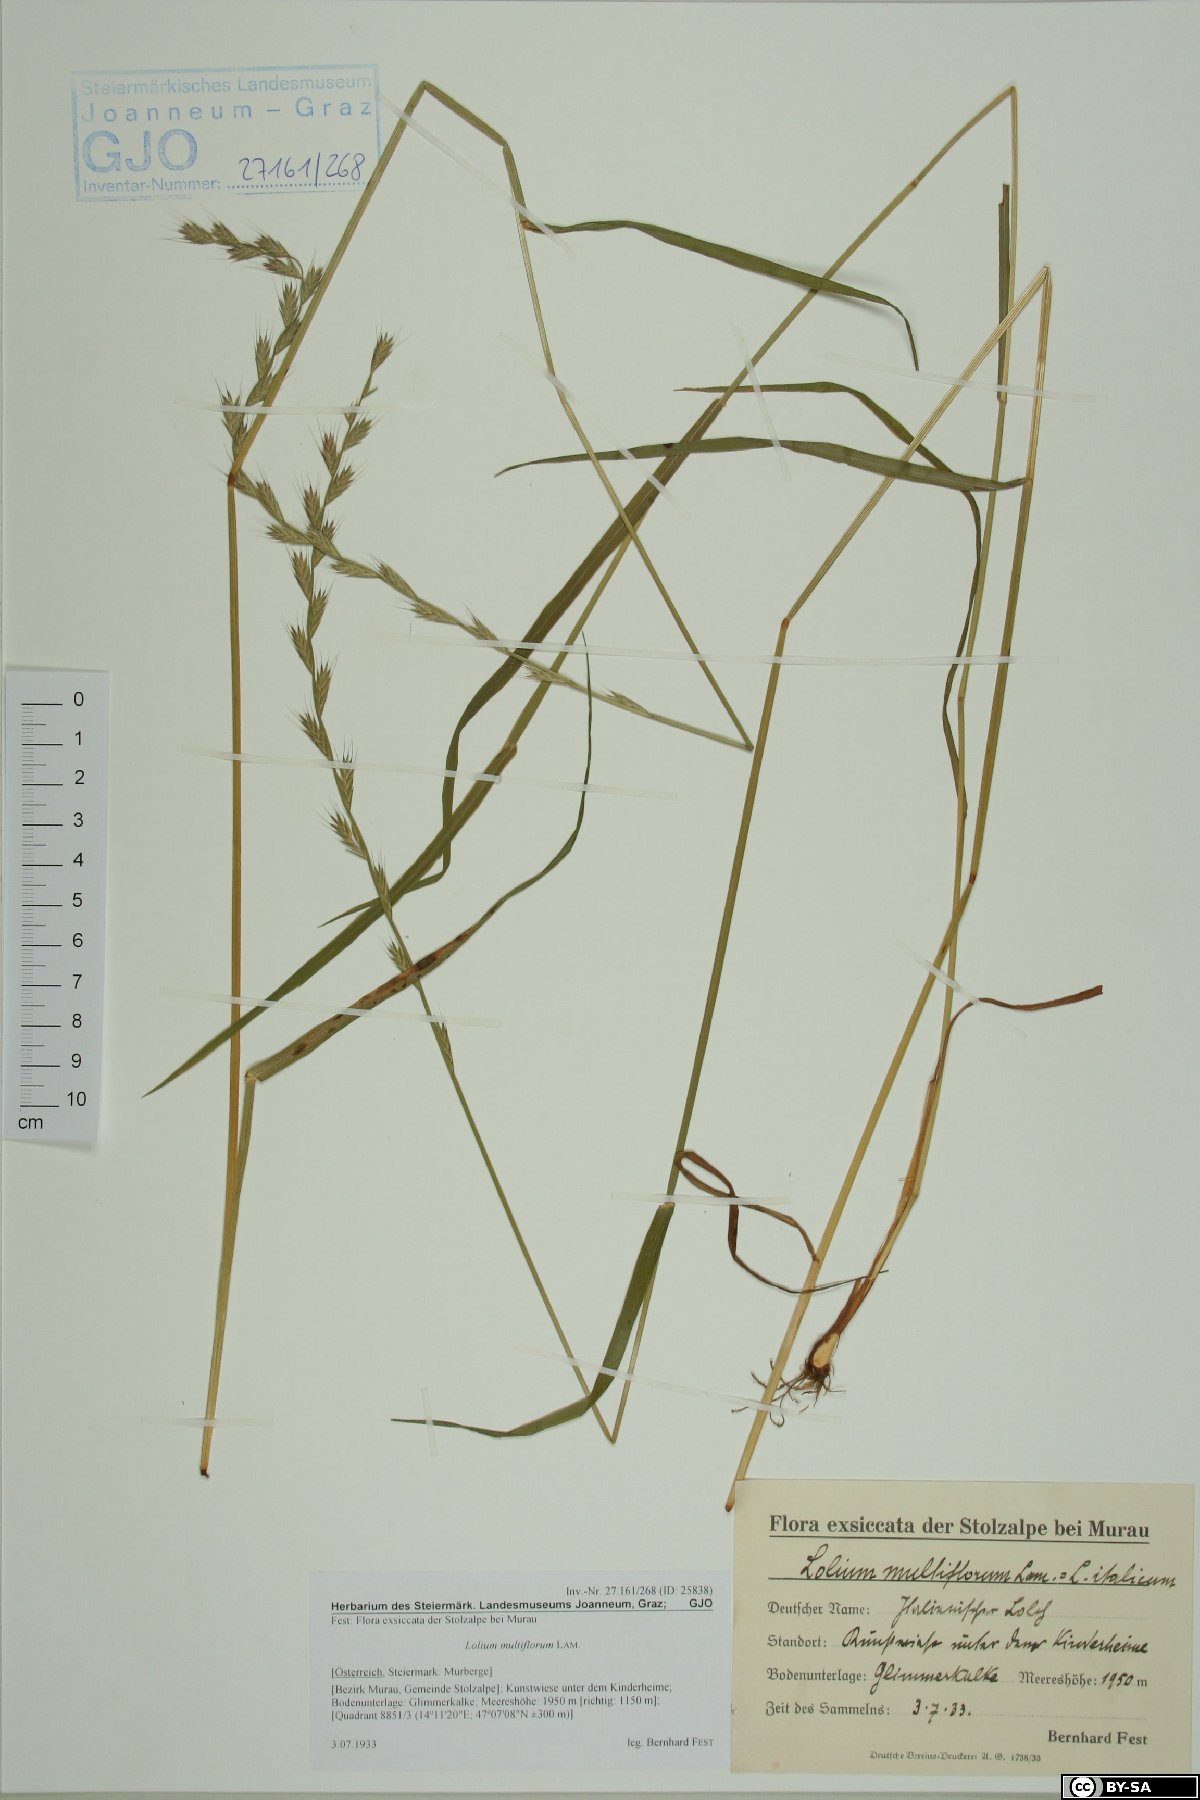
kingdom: Plantae
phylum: Tracheophyta
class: Liliopsida
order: Poales
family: Poaceae
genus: Lolium
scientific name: Lolium multiflorum
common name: Annual ryegrass
